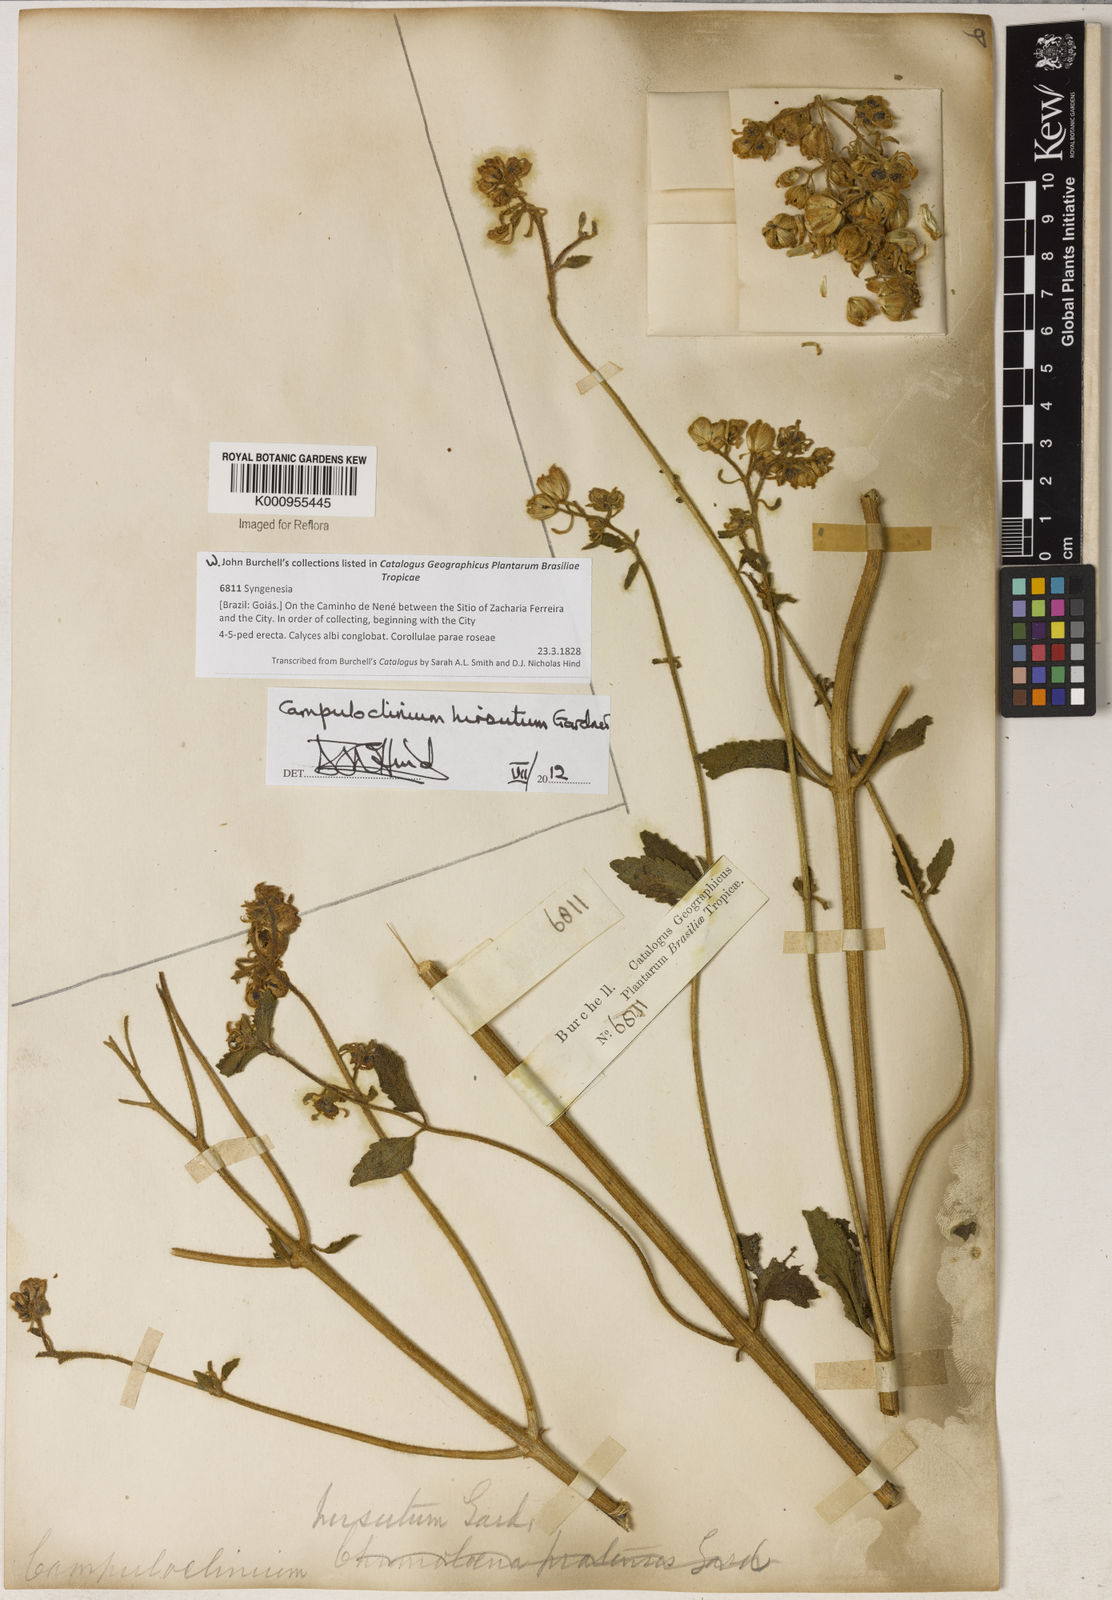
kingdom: Plantae
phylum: Tracheophyta
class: Magnoliopsida
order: Asterales
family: Asteraceae
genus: Campuloclinium
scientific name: Campuloclinium hirsutum
